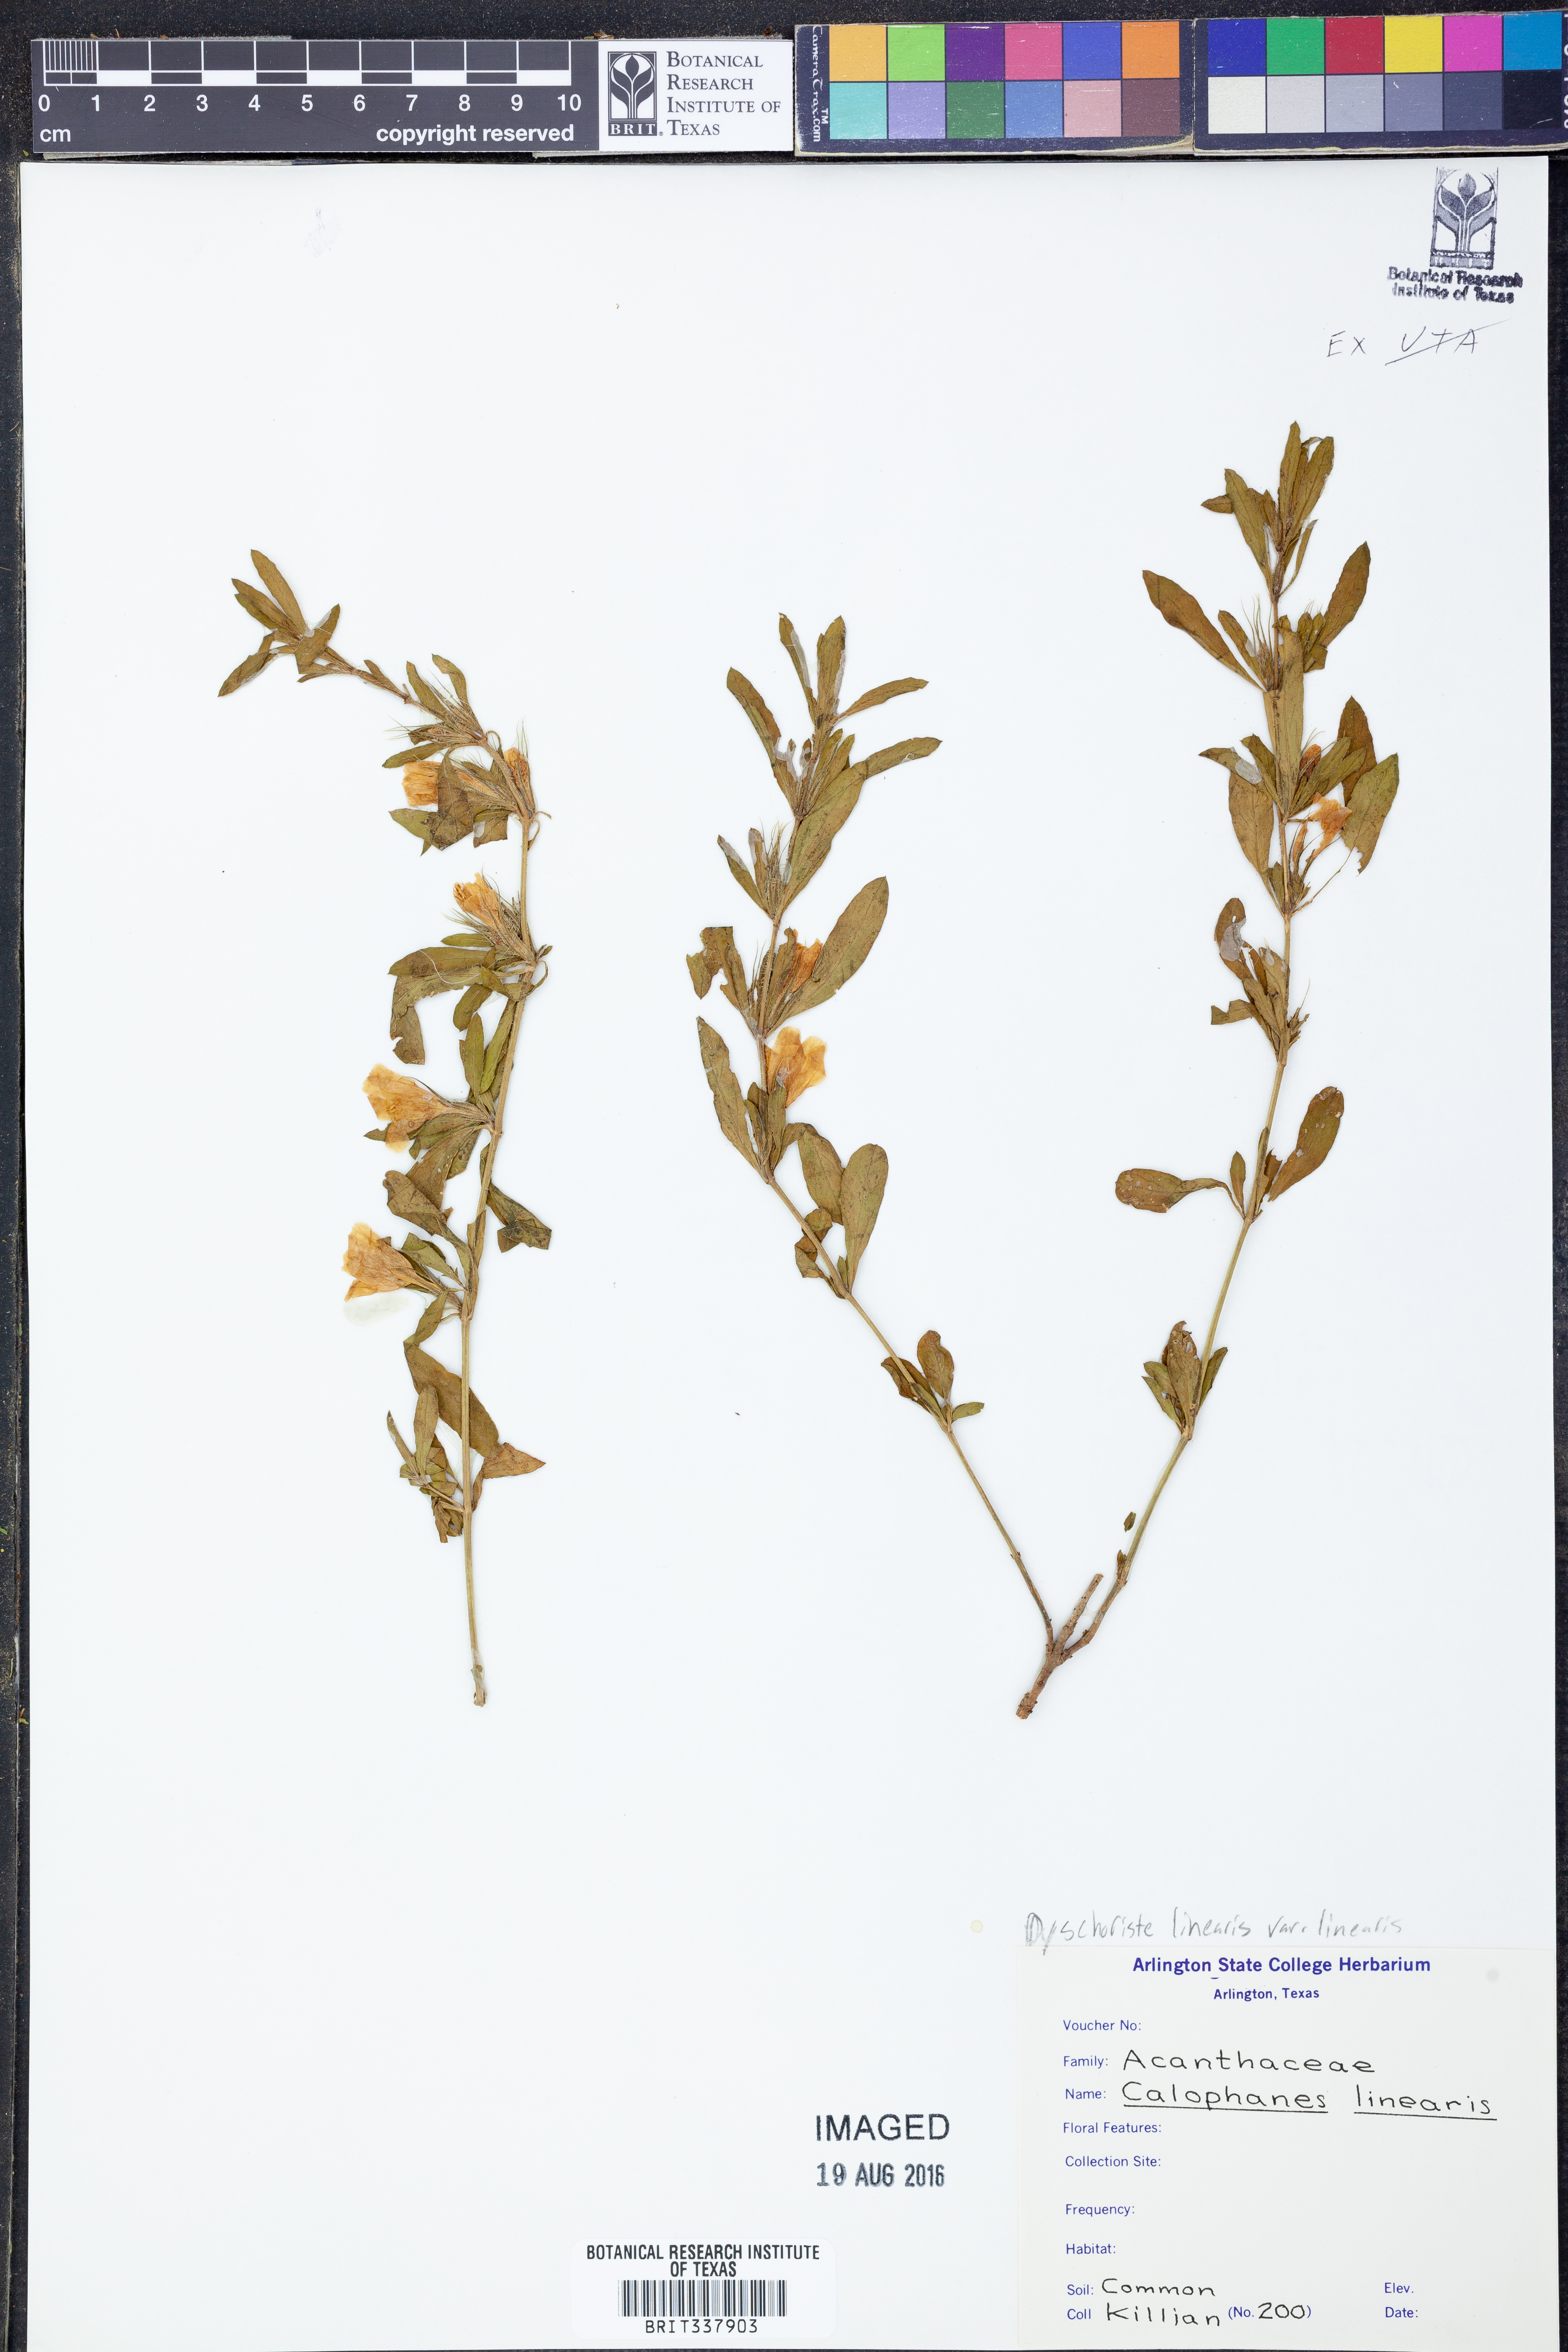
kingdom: Plantae
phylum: Tracheophyta
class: Magnoliopsida
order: Lamiales
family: Acanthaceae
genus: Dyschoriste
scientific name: Dyschoriste linearis
